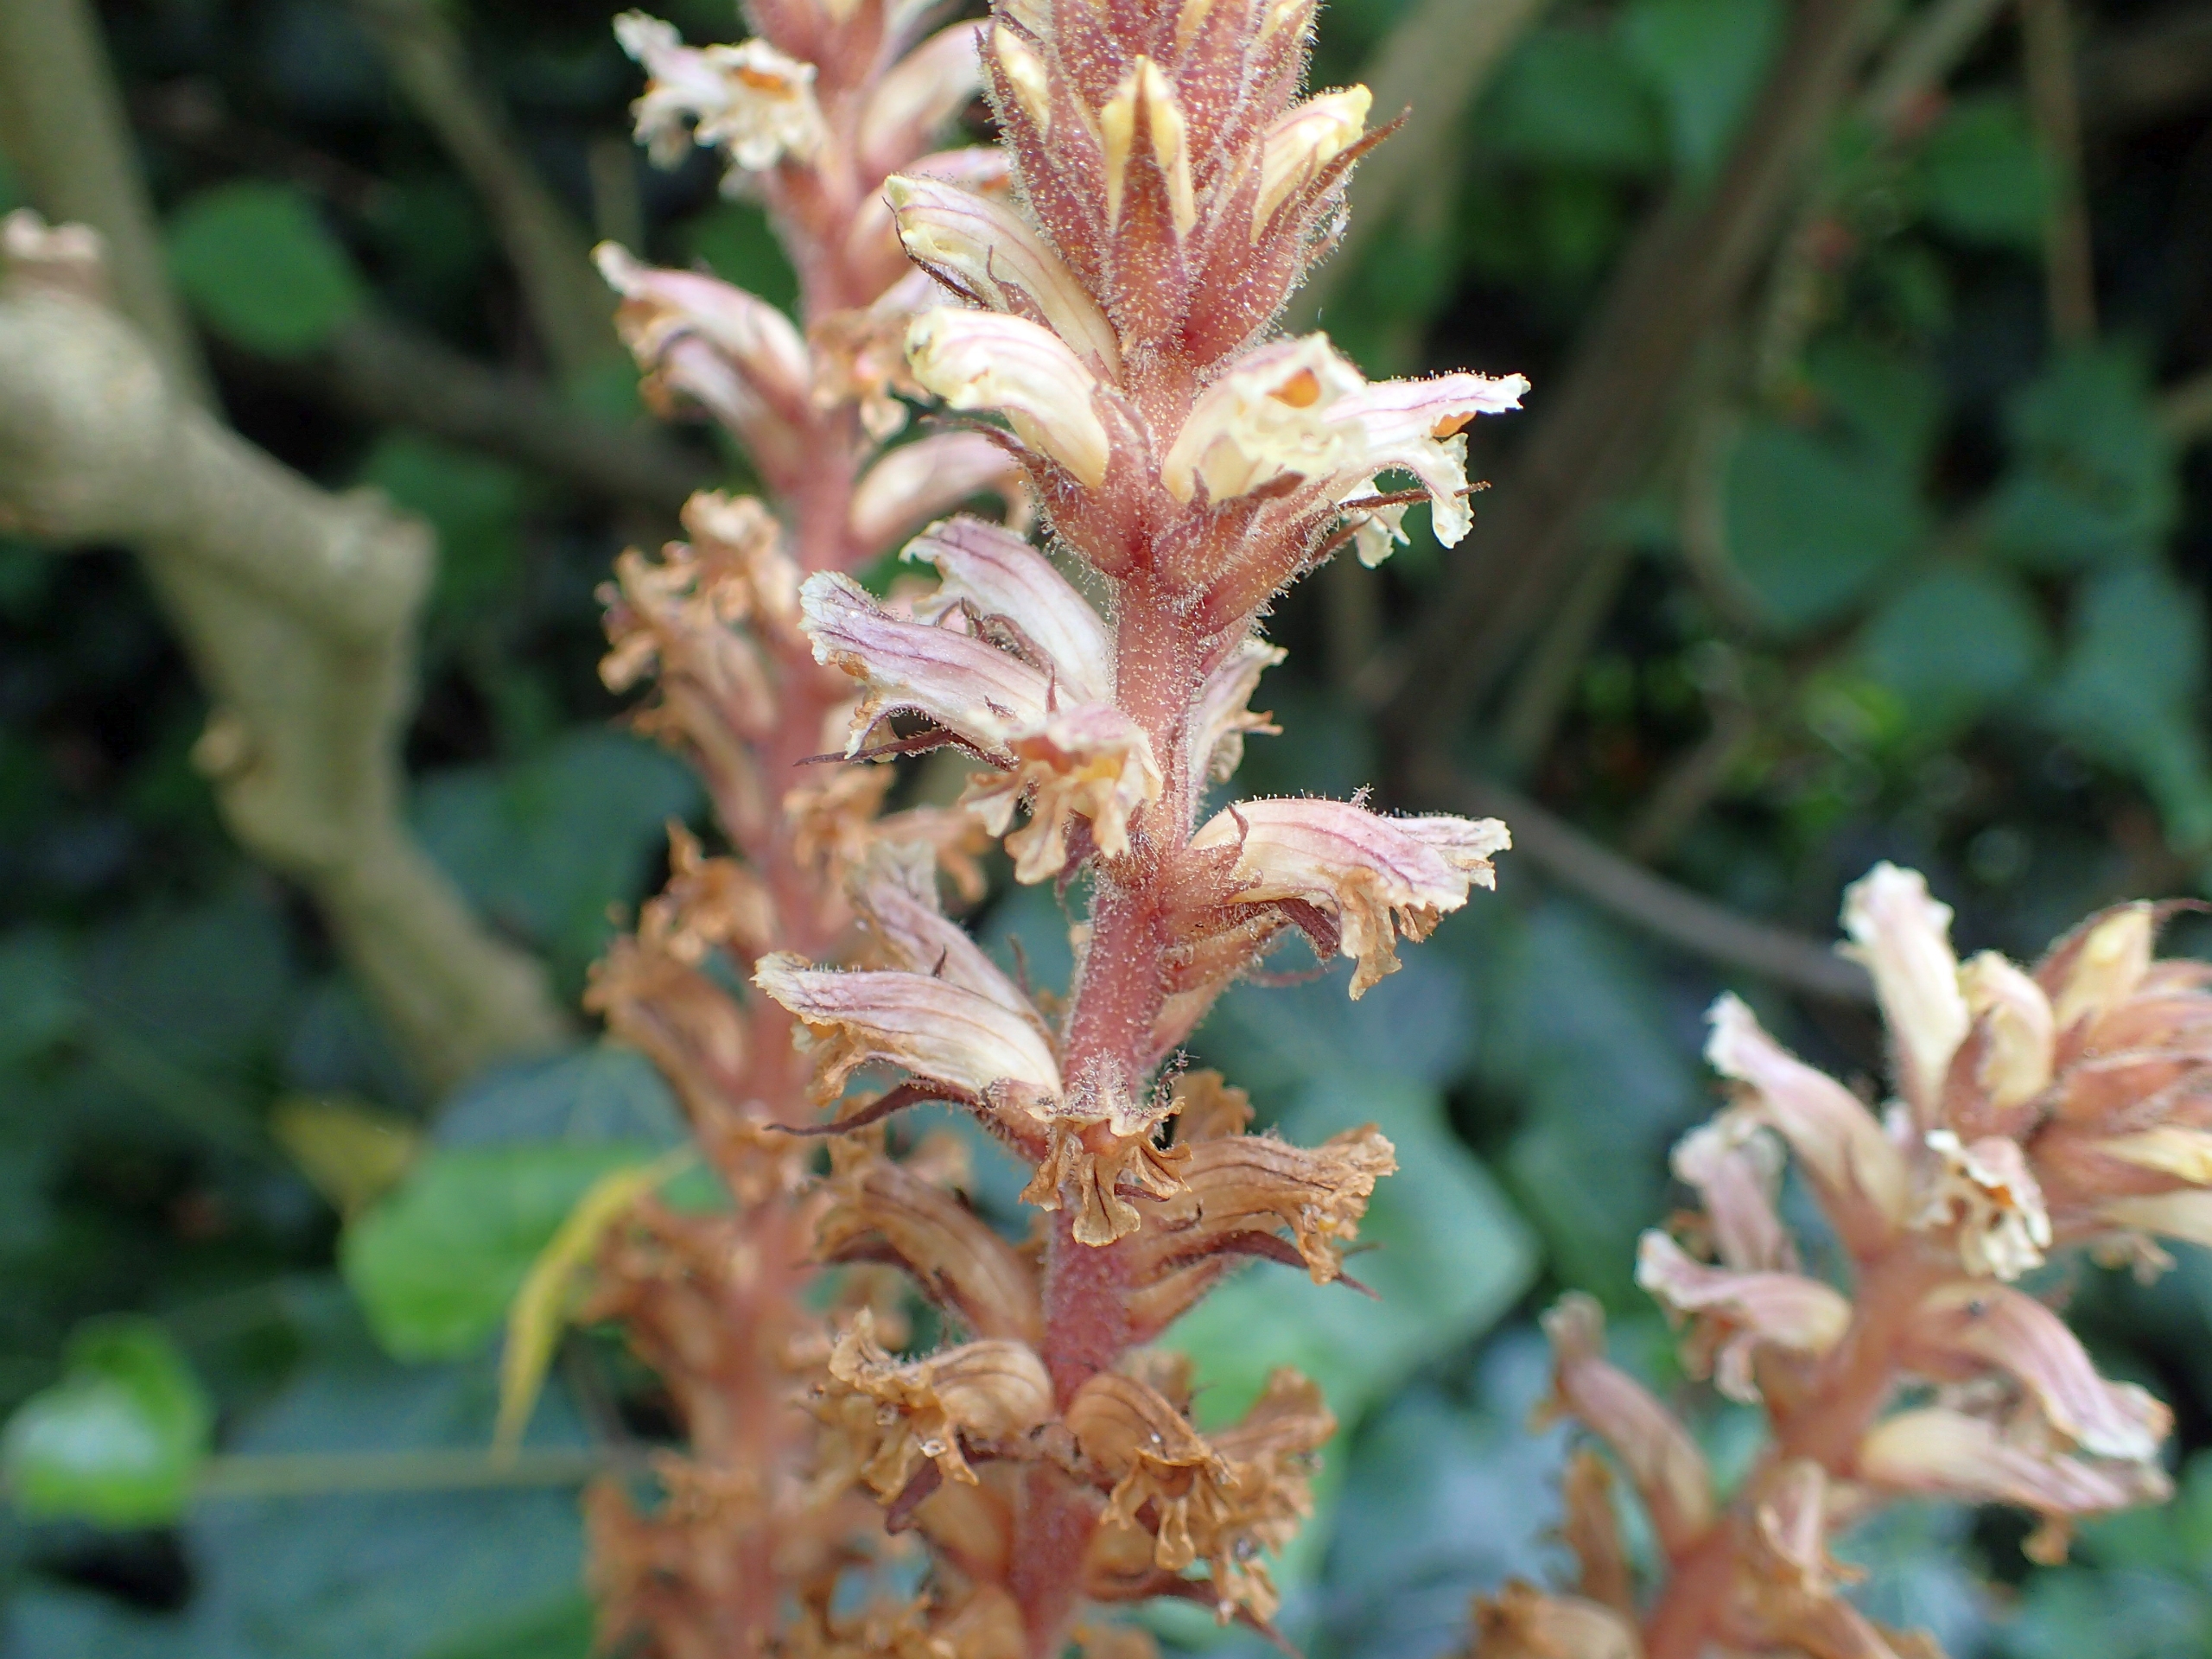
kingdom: Plantae
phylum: Tracheophyta
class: Magnoliopsida
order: Lamiales
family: Orobanchaceae
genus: Orobanche
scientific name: Orobanche hederae
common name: Vedbend-gyvelkvæler
